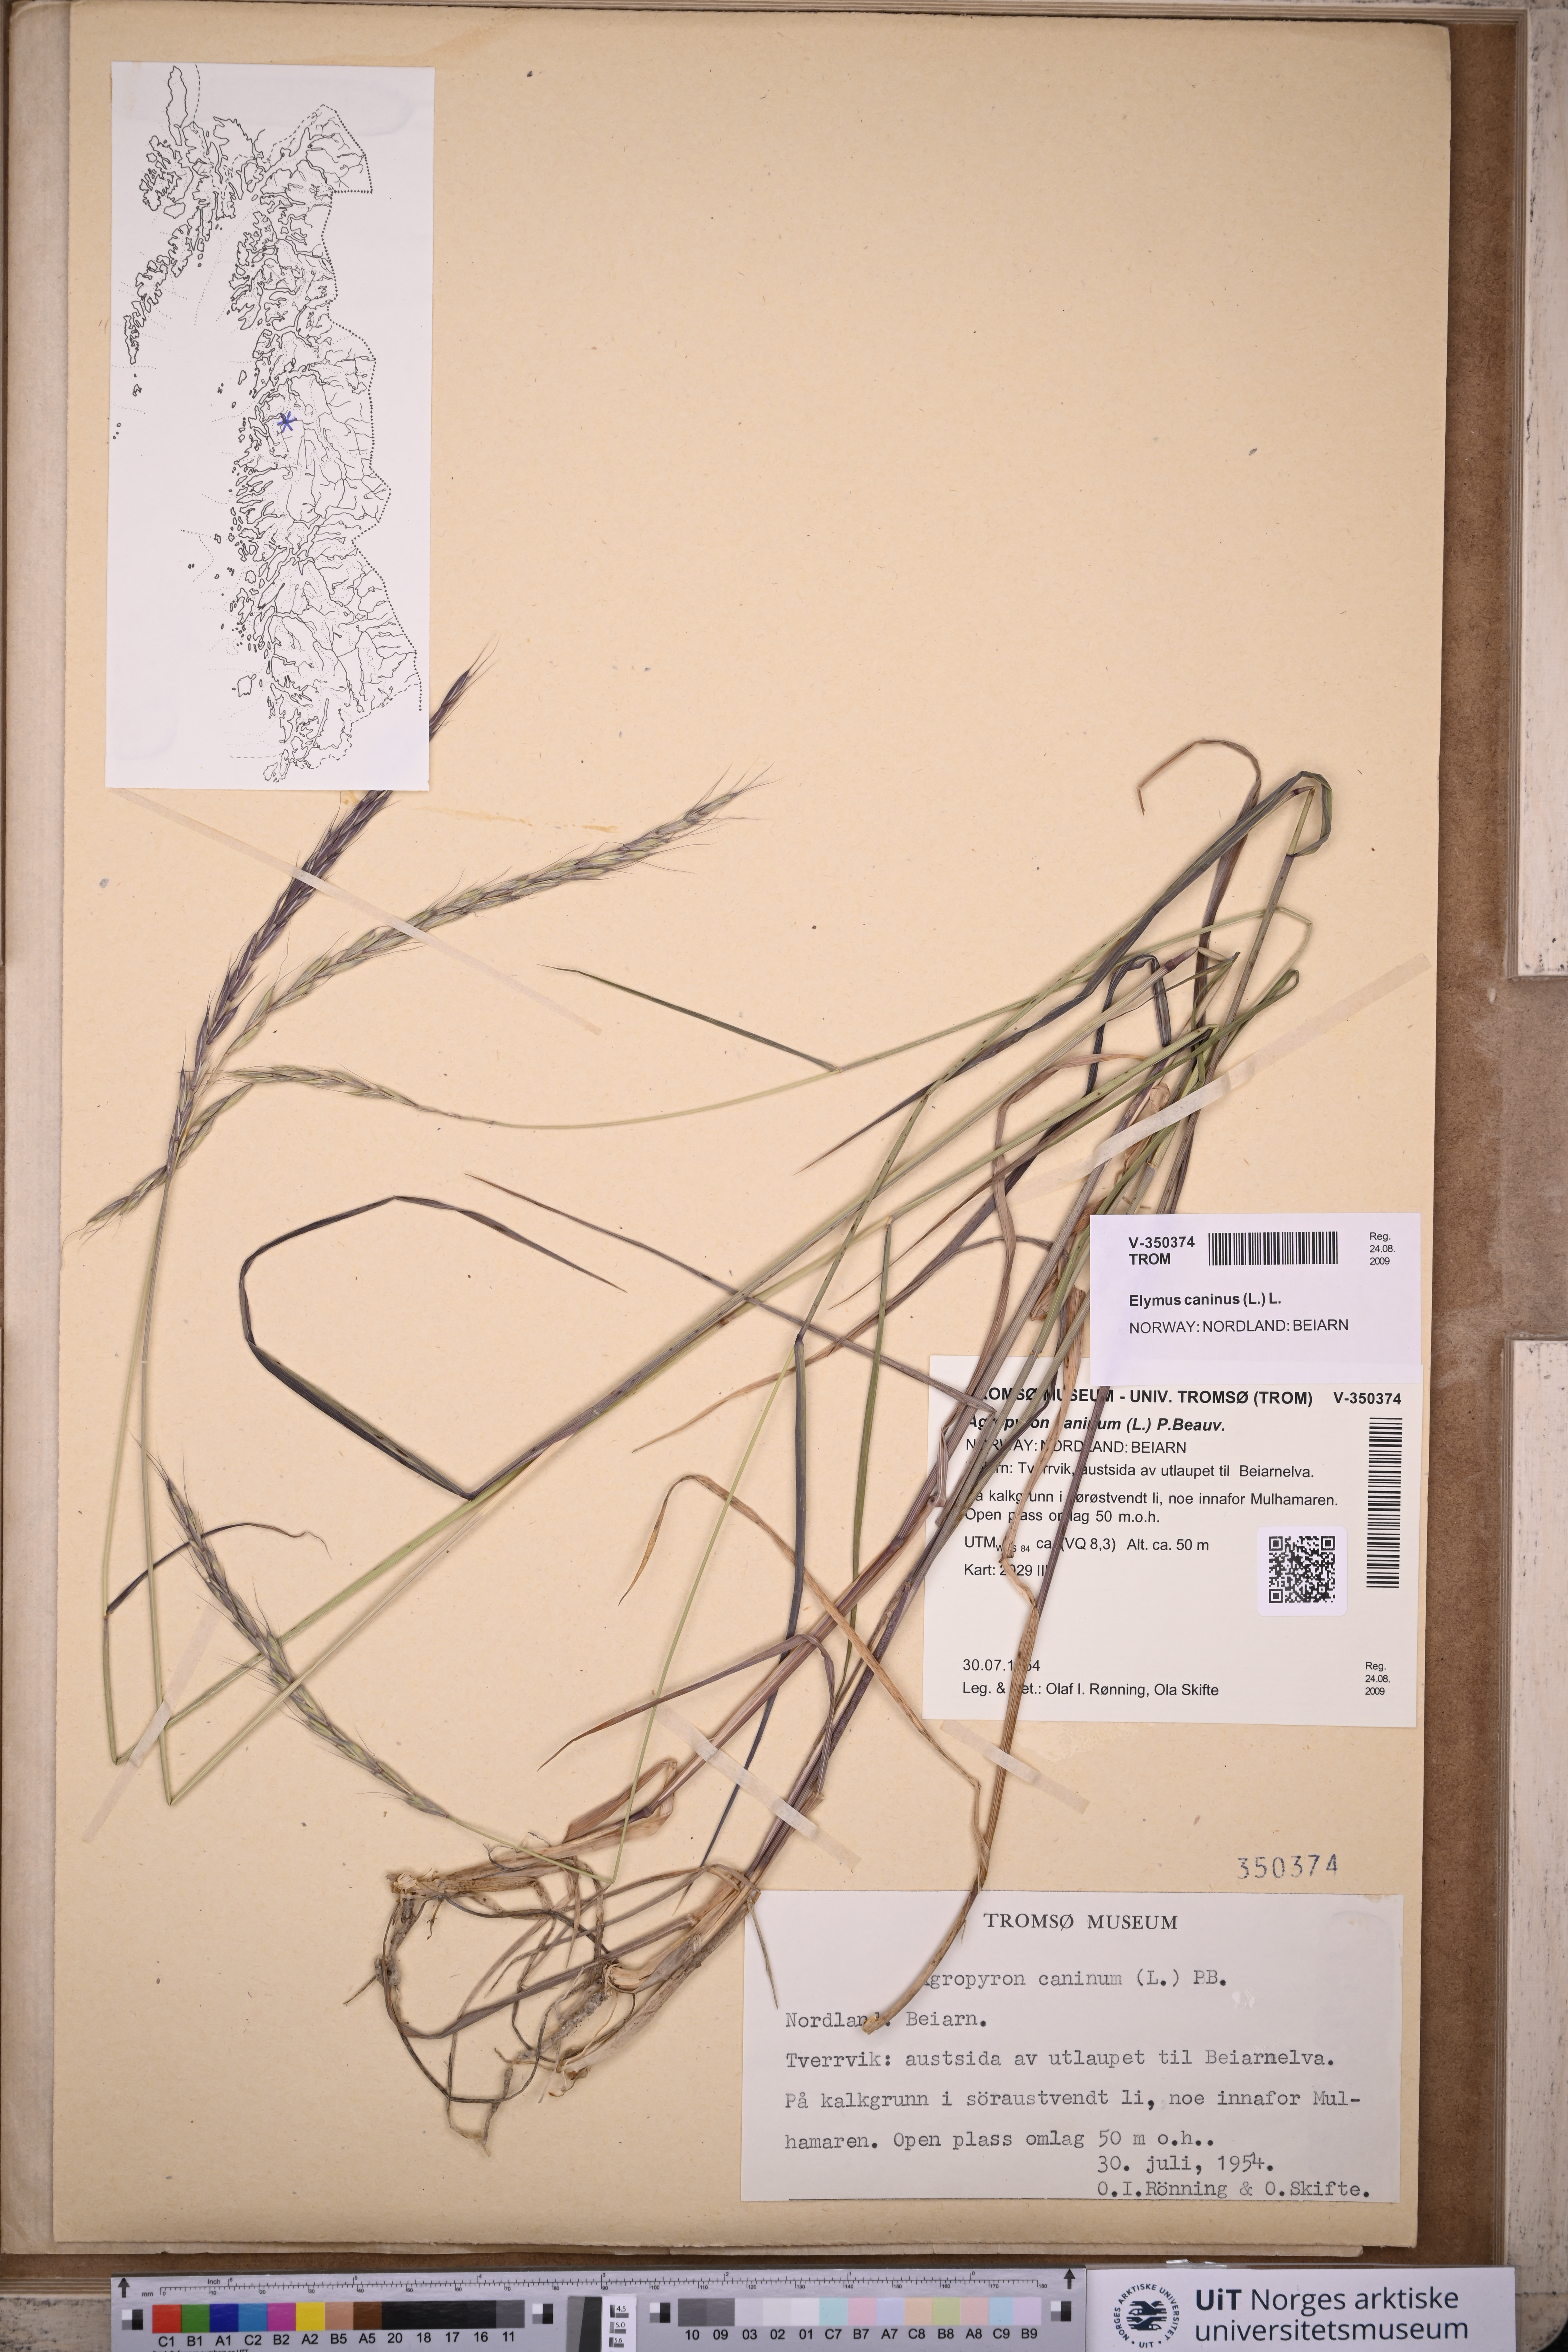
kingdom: Plantae
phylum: Tracheophyta
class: Liliopsida
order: Poales
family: Poaceae
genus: Elymus
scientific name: Elymus caninus
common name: Bearded couch
